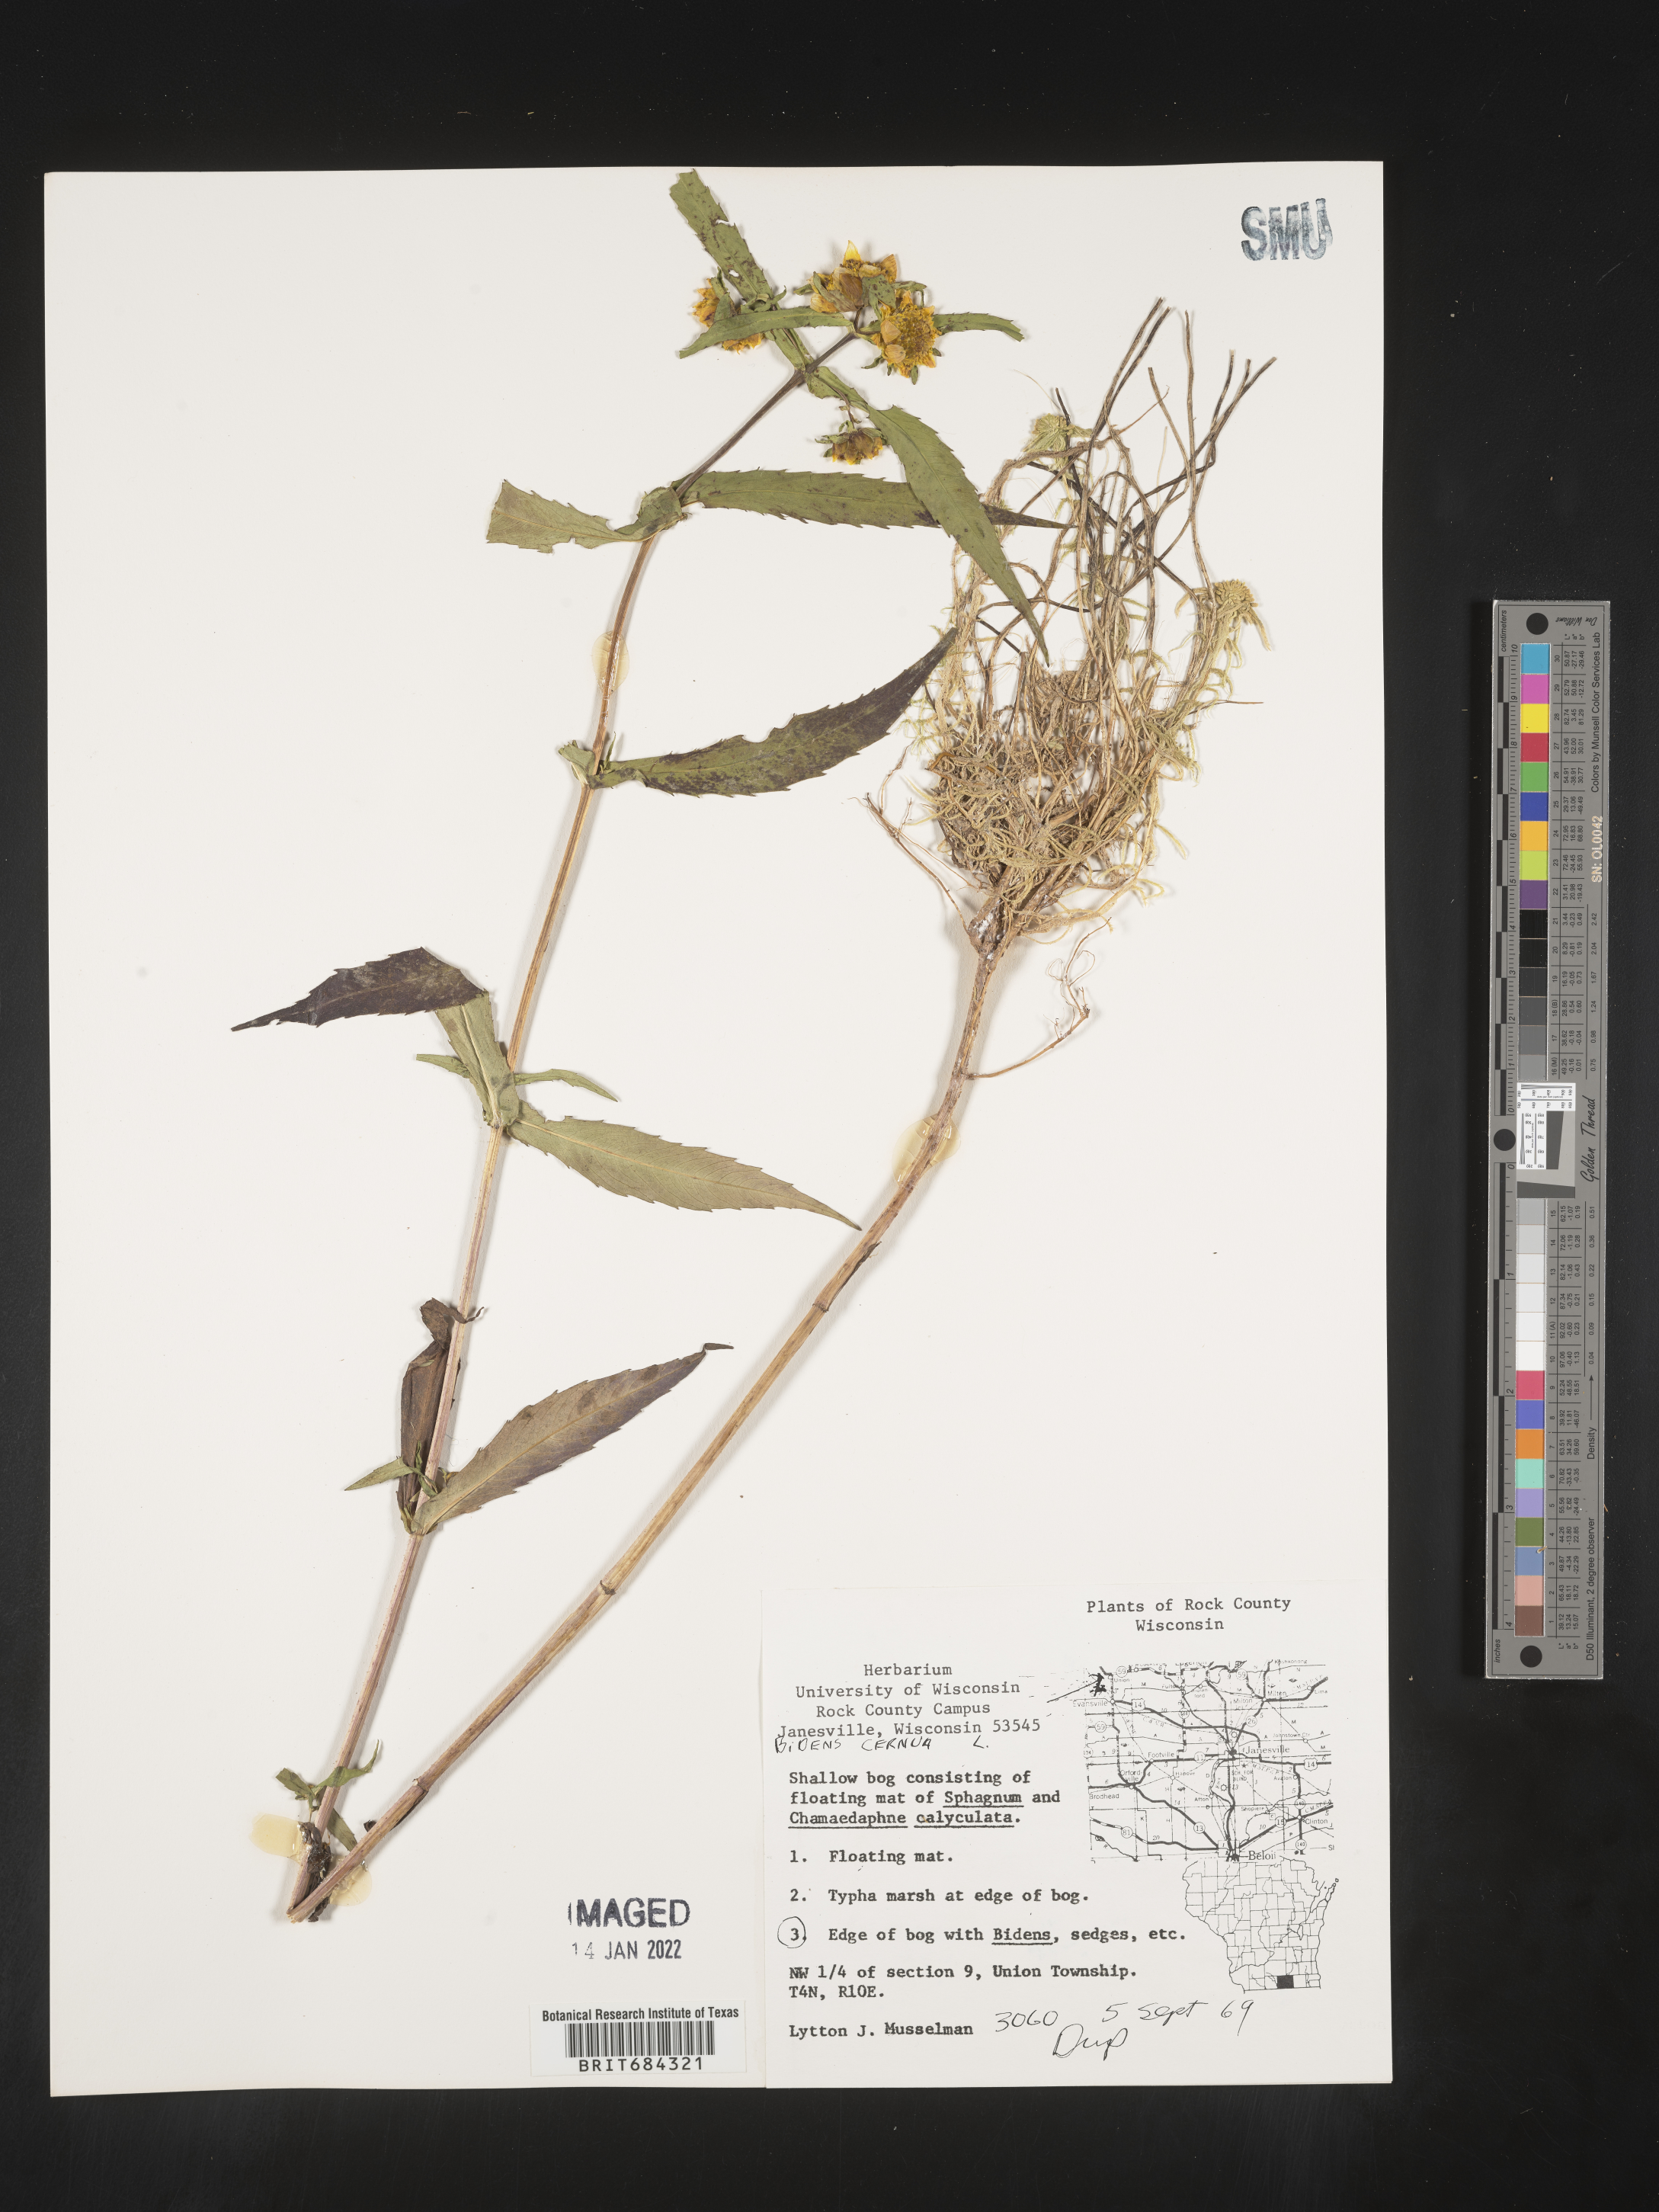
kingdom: Plantae
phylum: Tracheophyta
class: Magnoliopsida
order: Asterales
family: Asteraceae
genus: Bidens
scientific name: Bidens cernua
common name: Nodding bur-marigold
